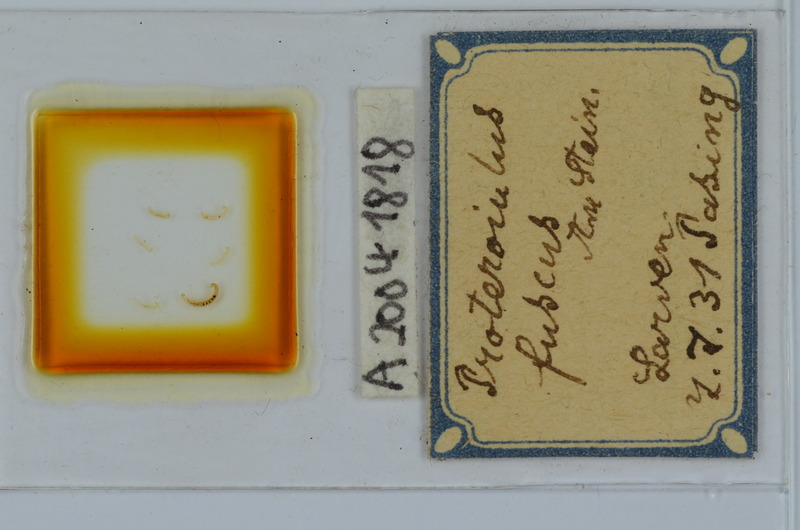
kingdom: Animalia
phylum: Arthropoda
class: Diplopoda
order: Julida
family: Blaniulidae
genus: Proteroiulus
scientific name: Proteroiulus fuscus
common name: Millipede
